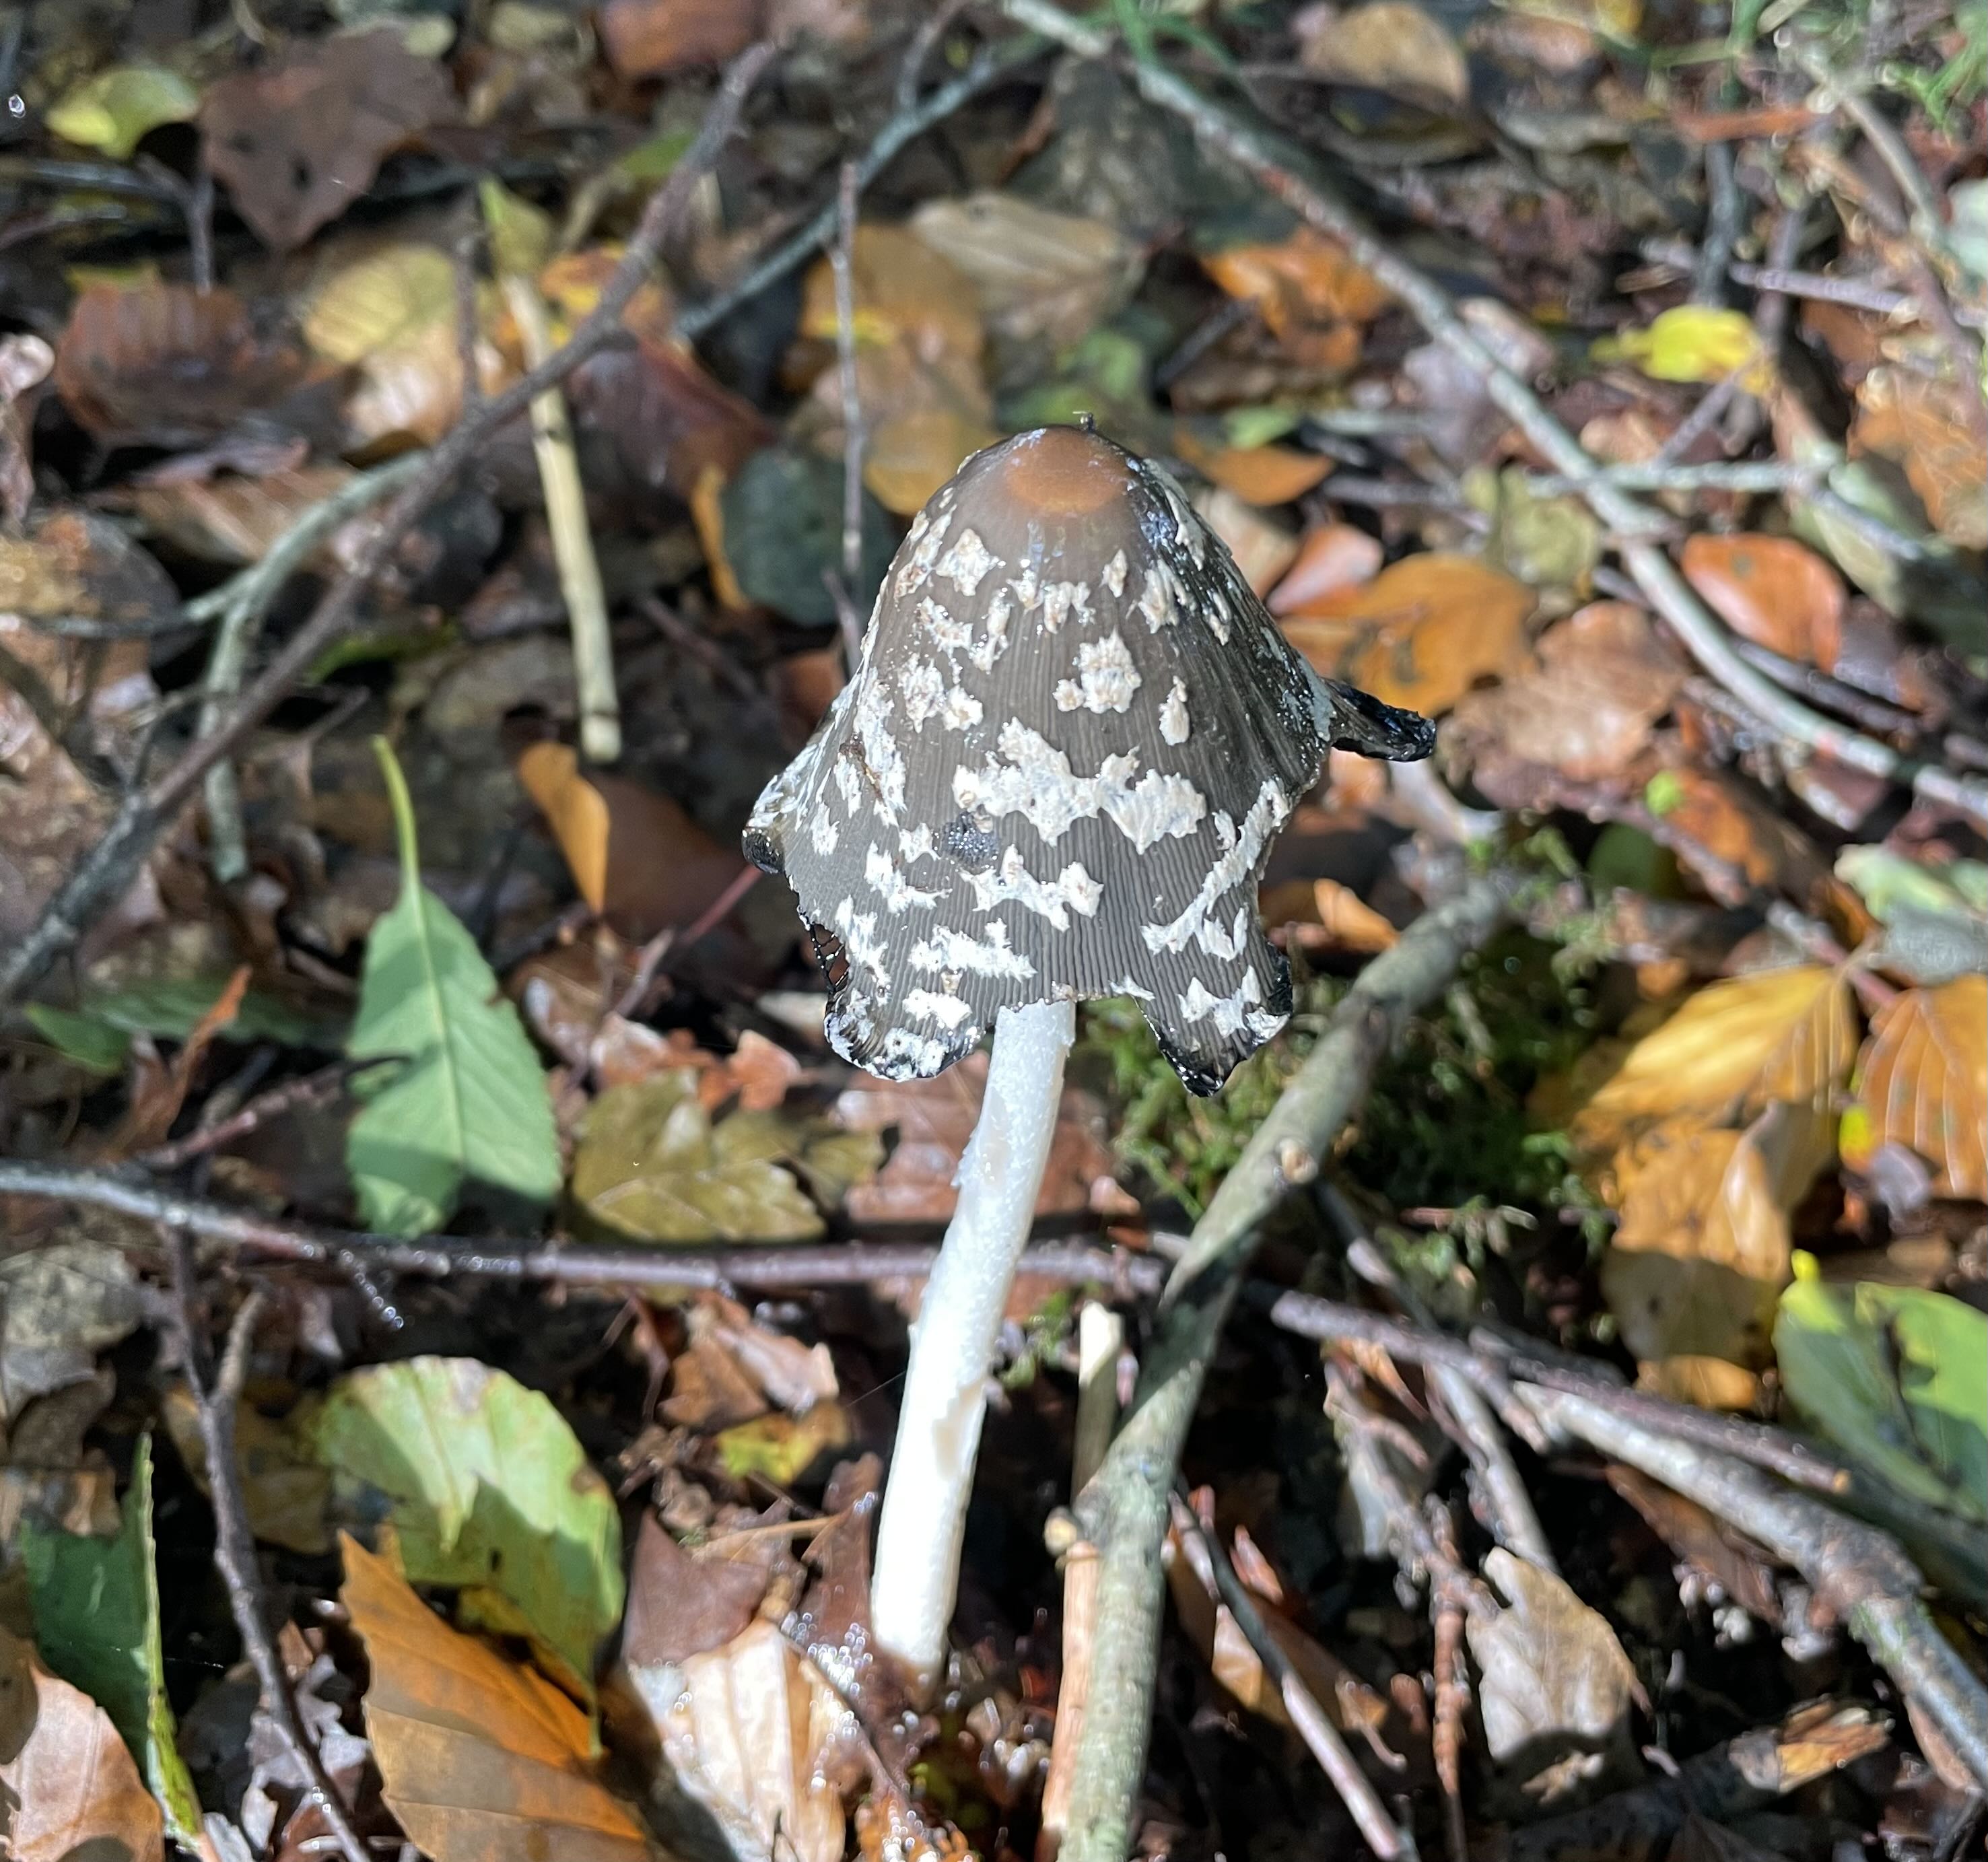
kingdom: Fungi
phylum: Basidiomycota
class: Agaricomycetes
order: Agaricales
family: Psathyrellaceae
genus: Coprinopsis
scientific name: Coprinopsis picacea
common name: skade-blækhat
